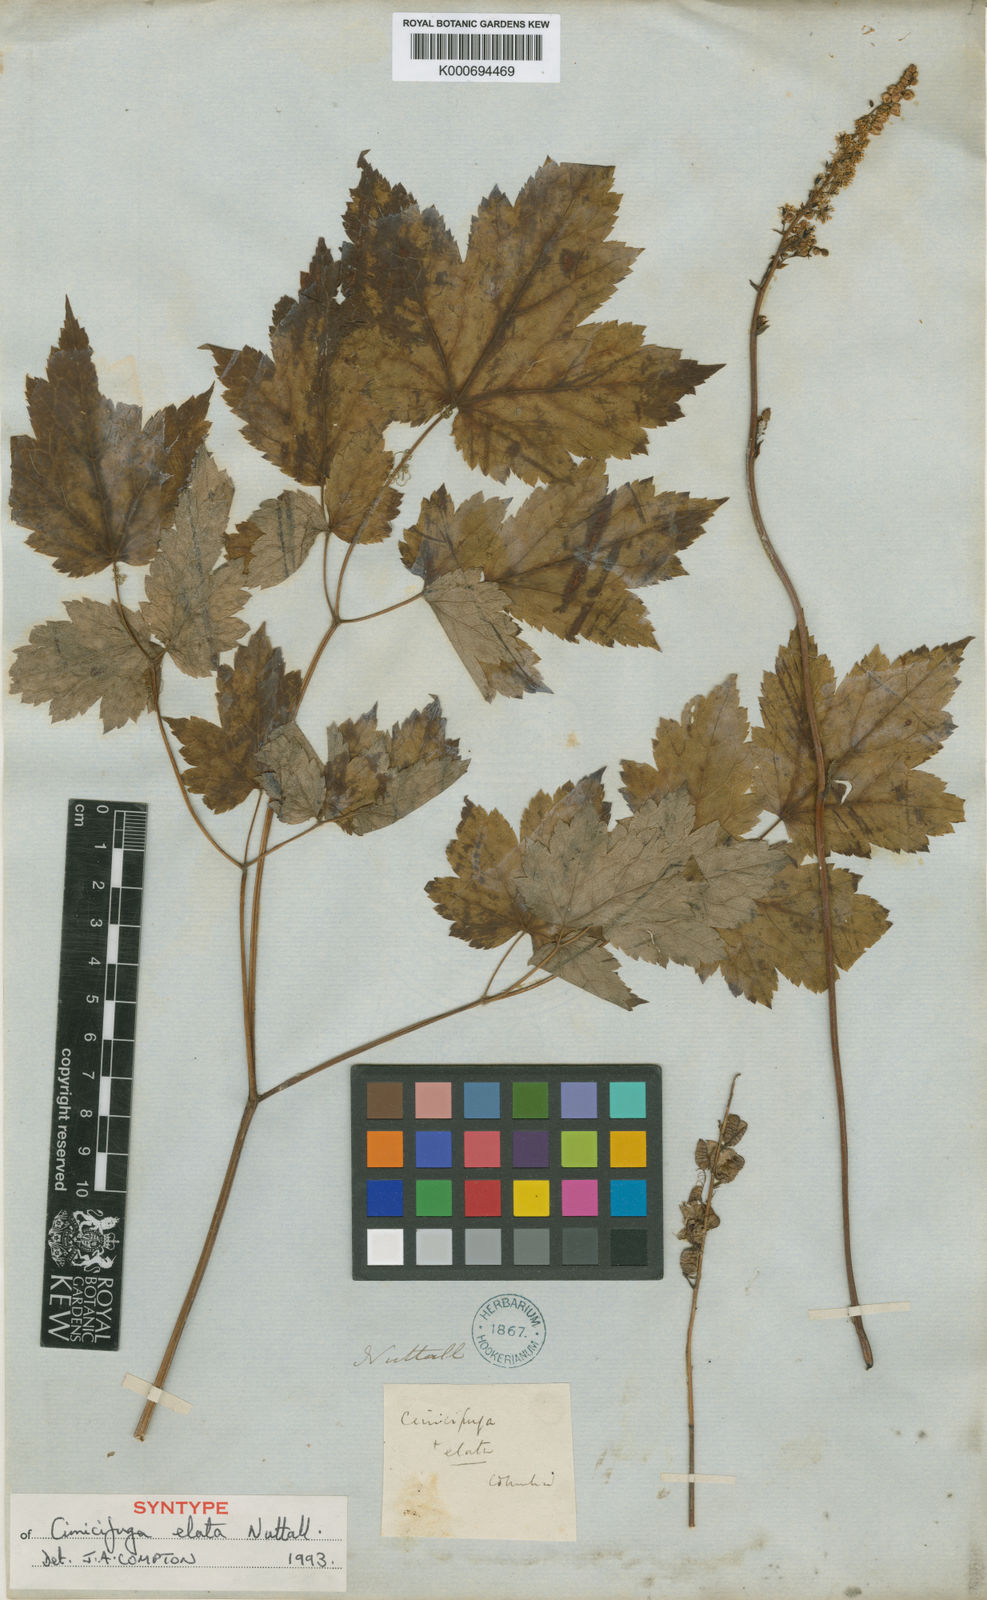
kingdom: Plantae
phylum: Tracheophyta
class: Magnoliopsida
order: Ranunculales
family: Ranunculaceae
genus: Actaea
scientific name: Actaea elata
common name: Tall bugbane
